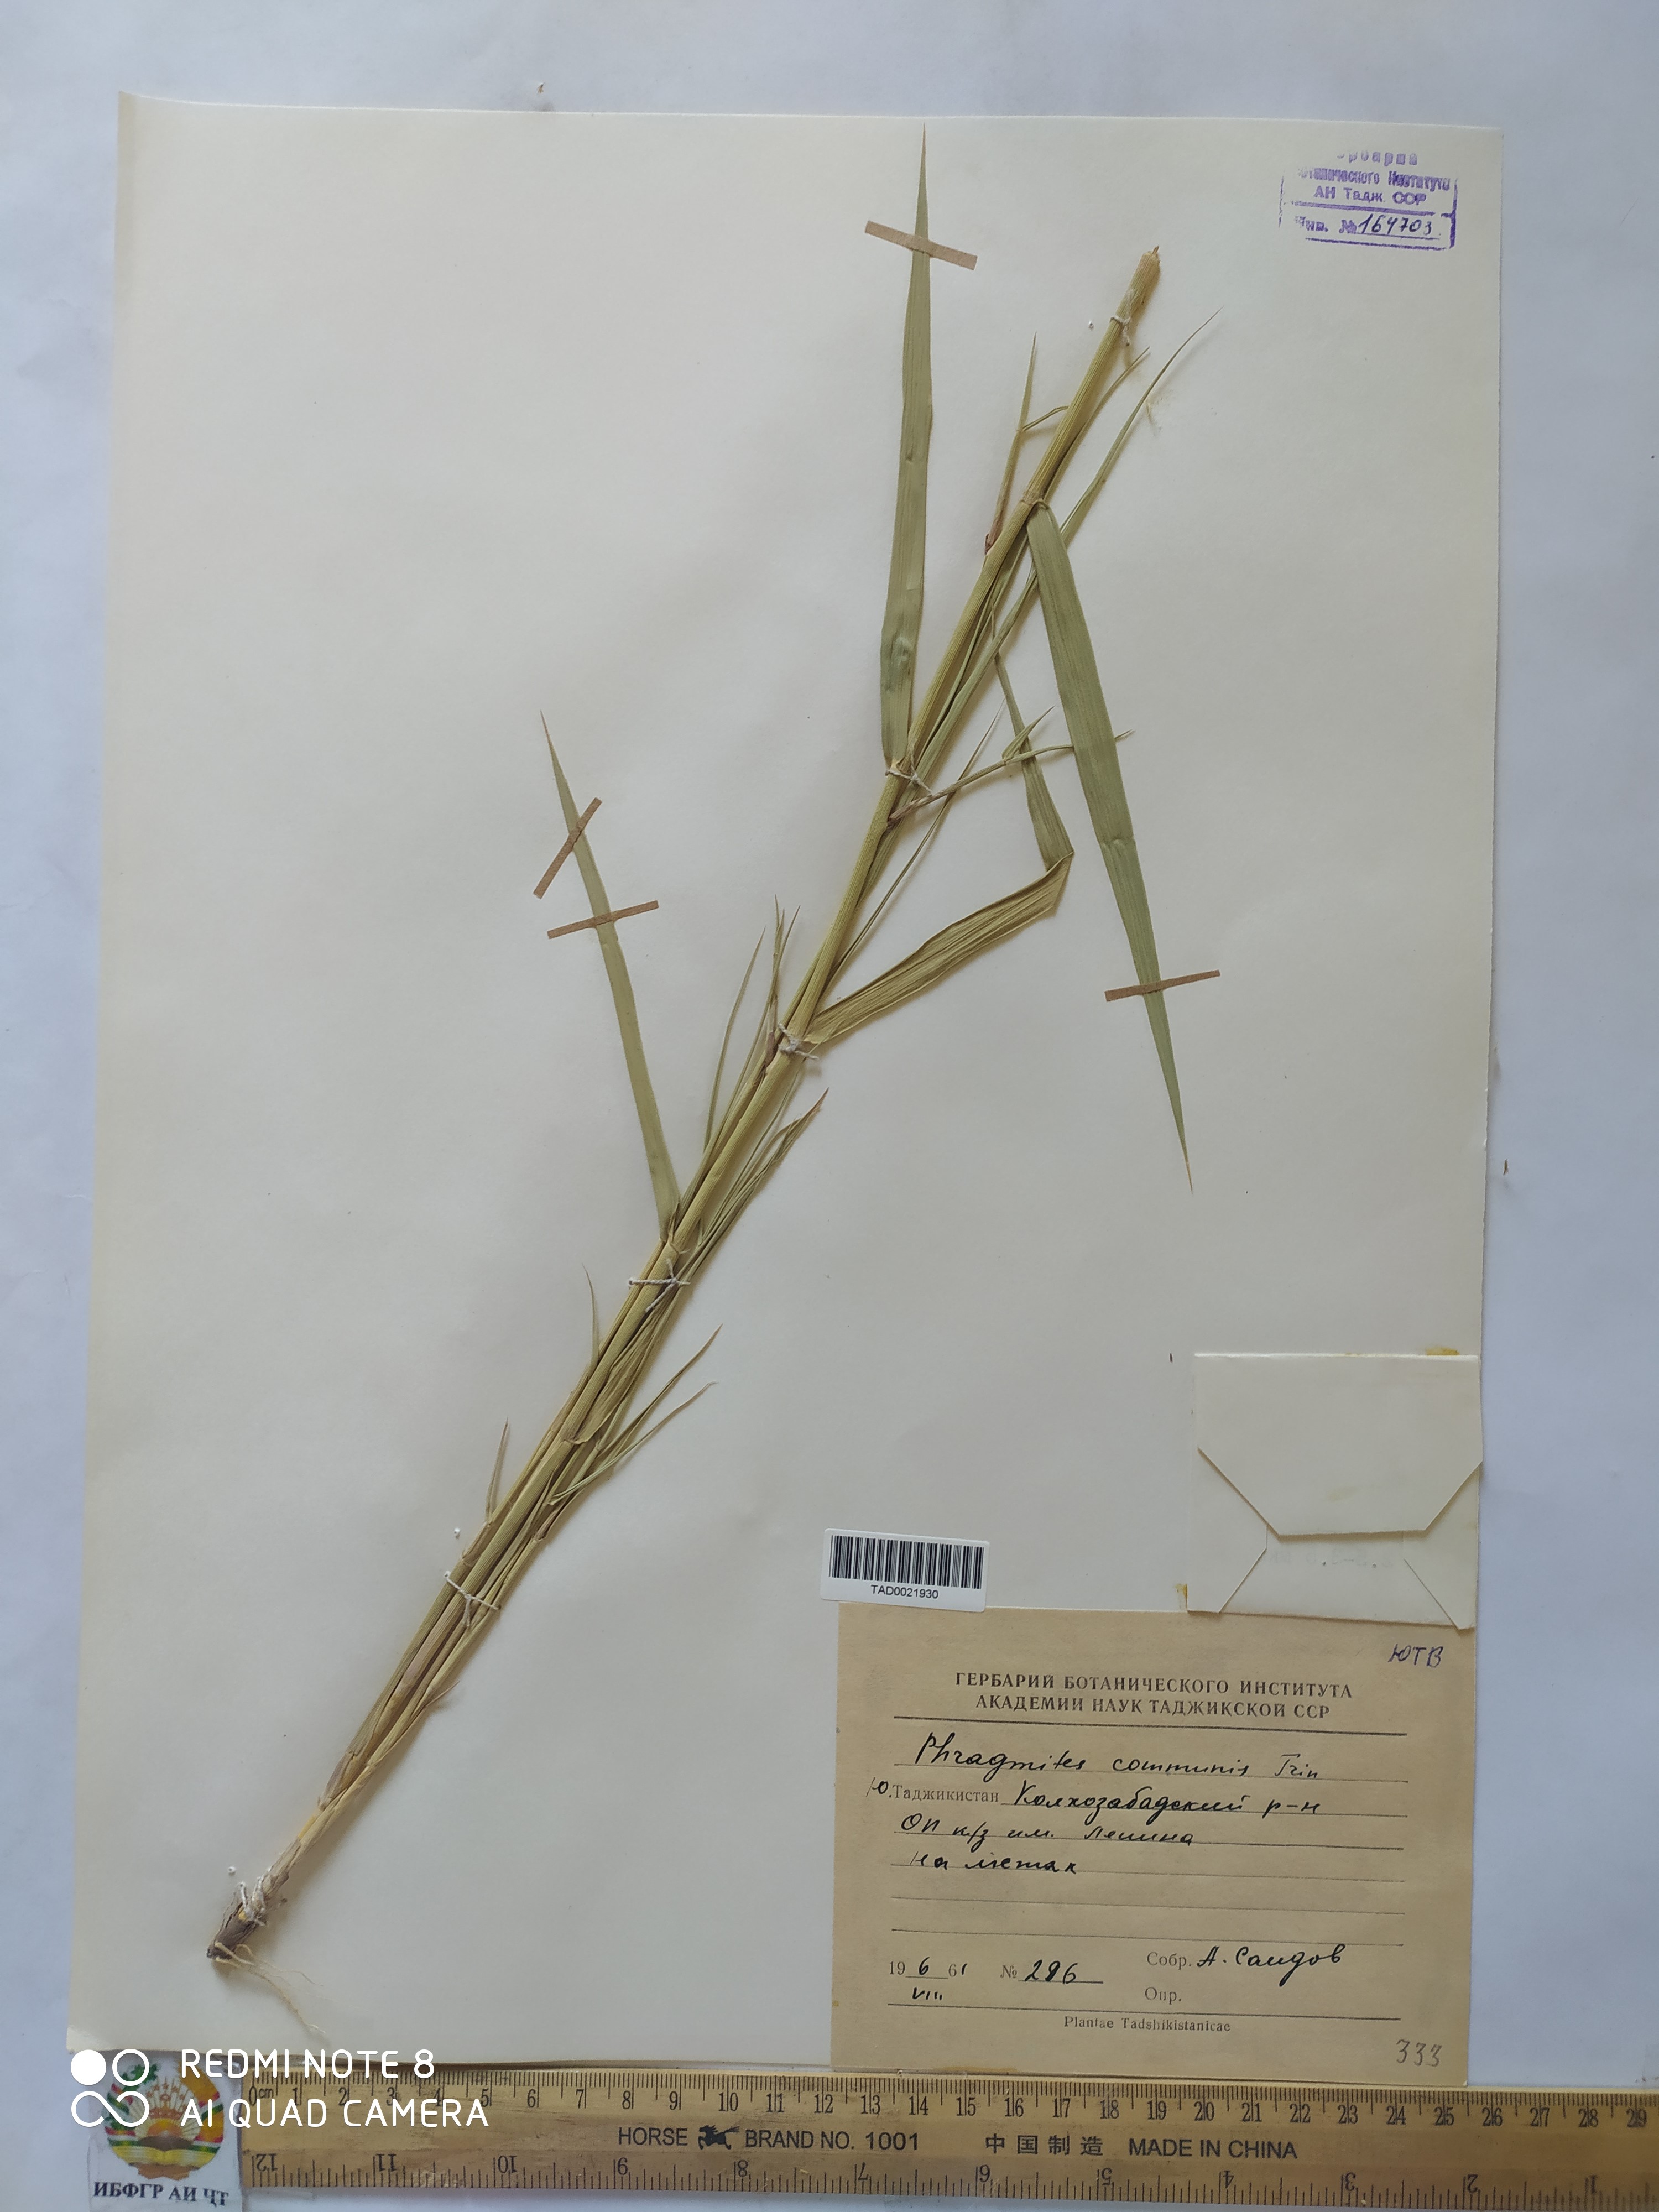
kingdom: Plantae
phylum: Tracheophyta
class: Liliopsida
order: Poales
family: Poaceae
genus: Phragmites
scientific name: Phragmites australis
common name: Common reed
